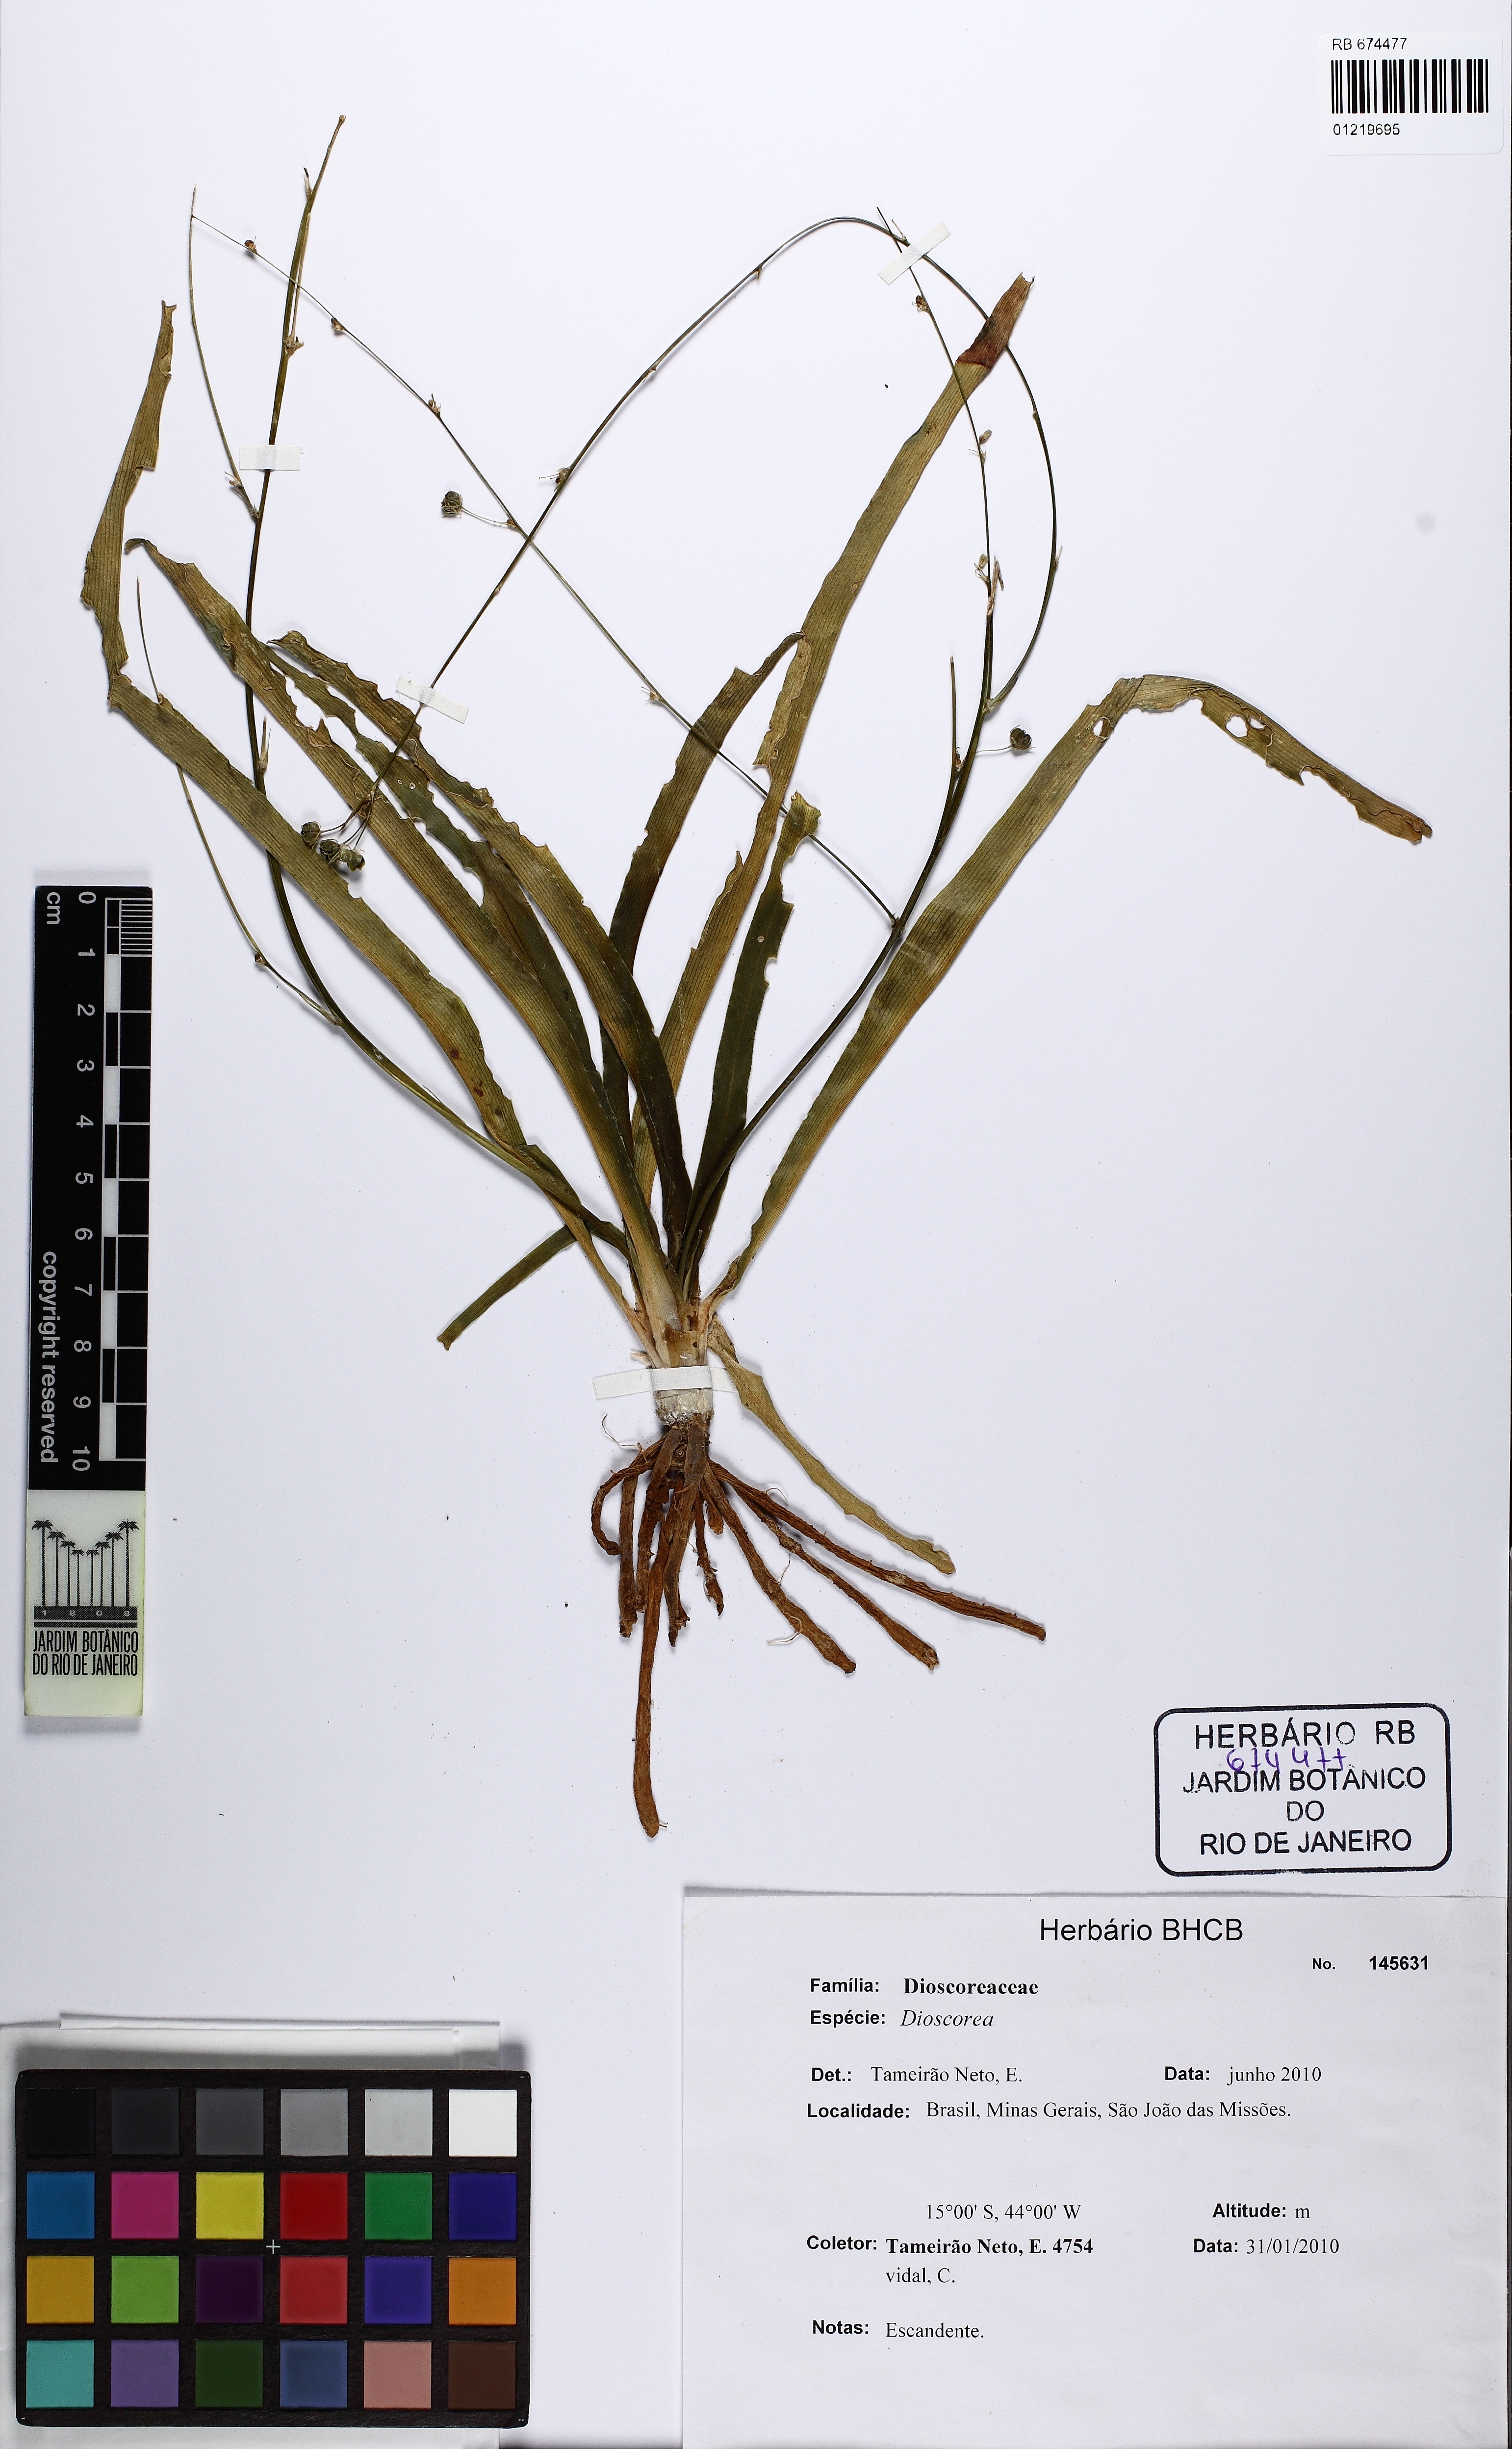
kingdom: Plantae
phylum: Tracheophyta
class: Liliopsida
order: Asparagales
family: Asparagaceae
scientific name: Asparagaceae
